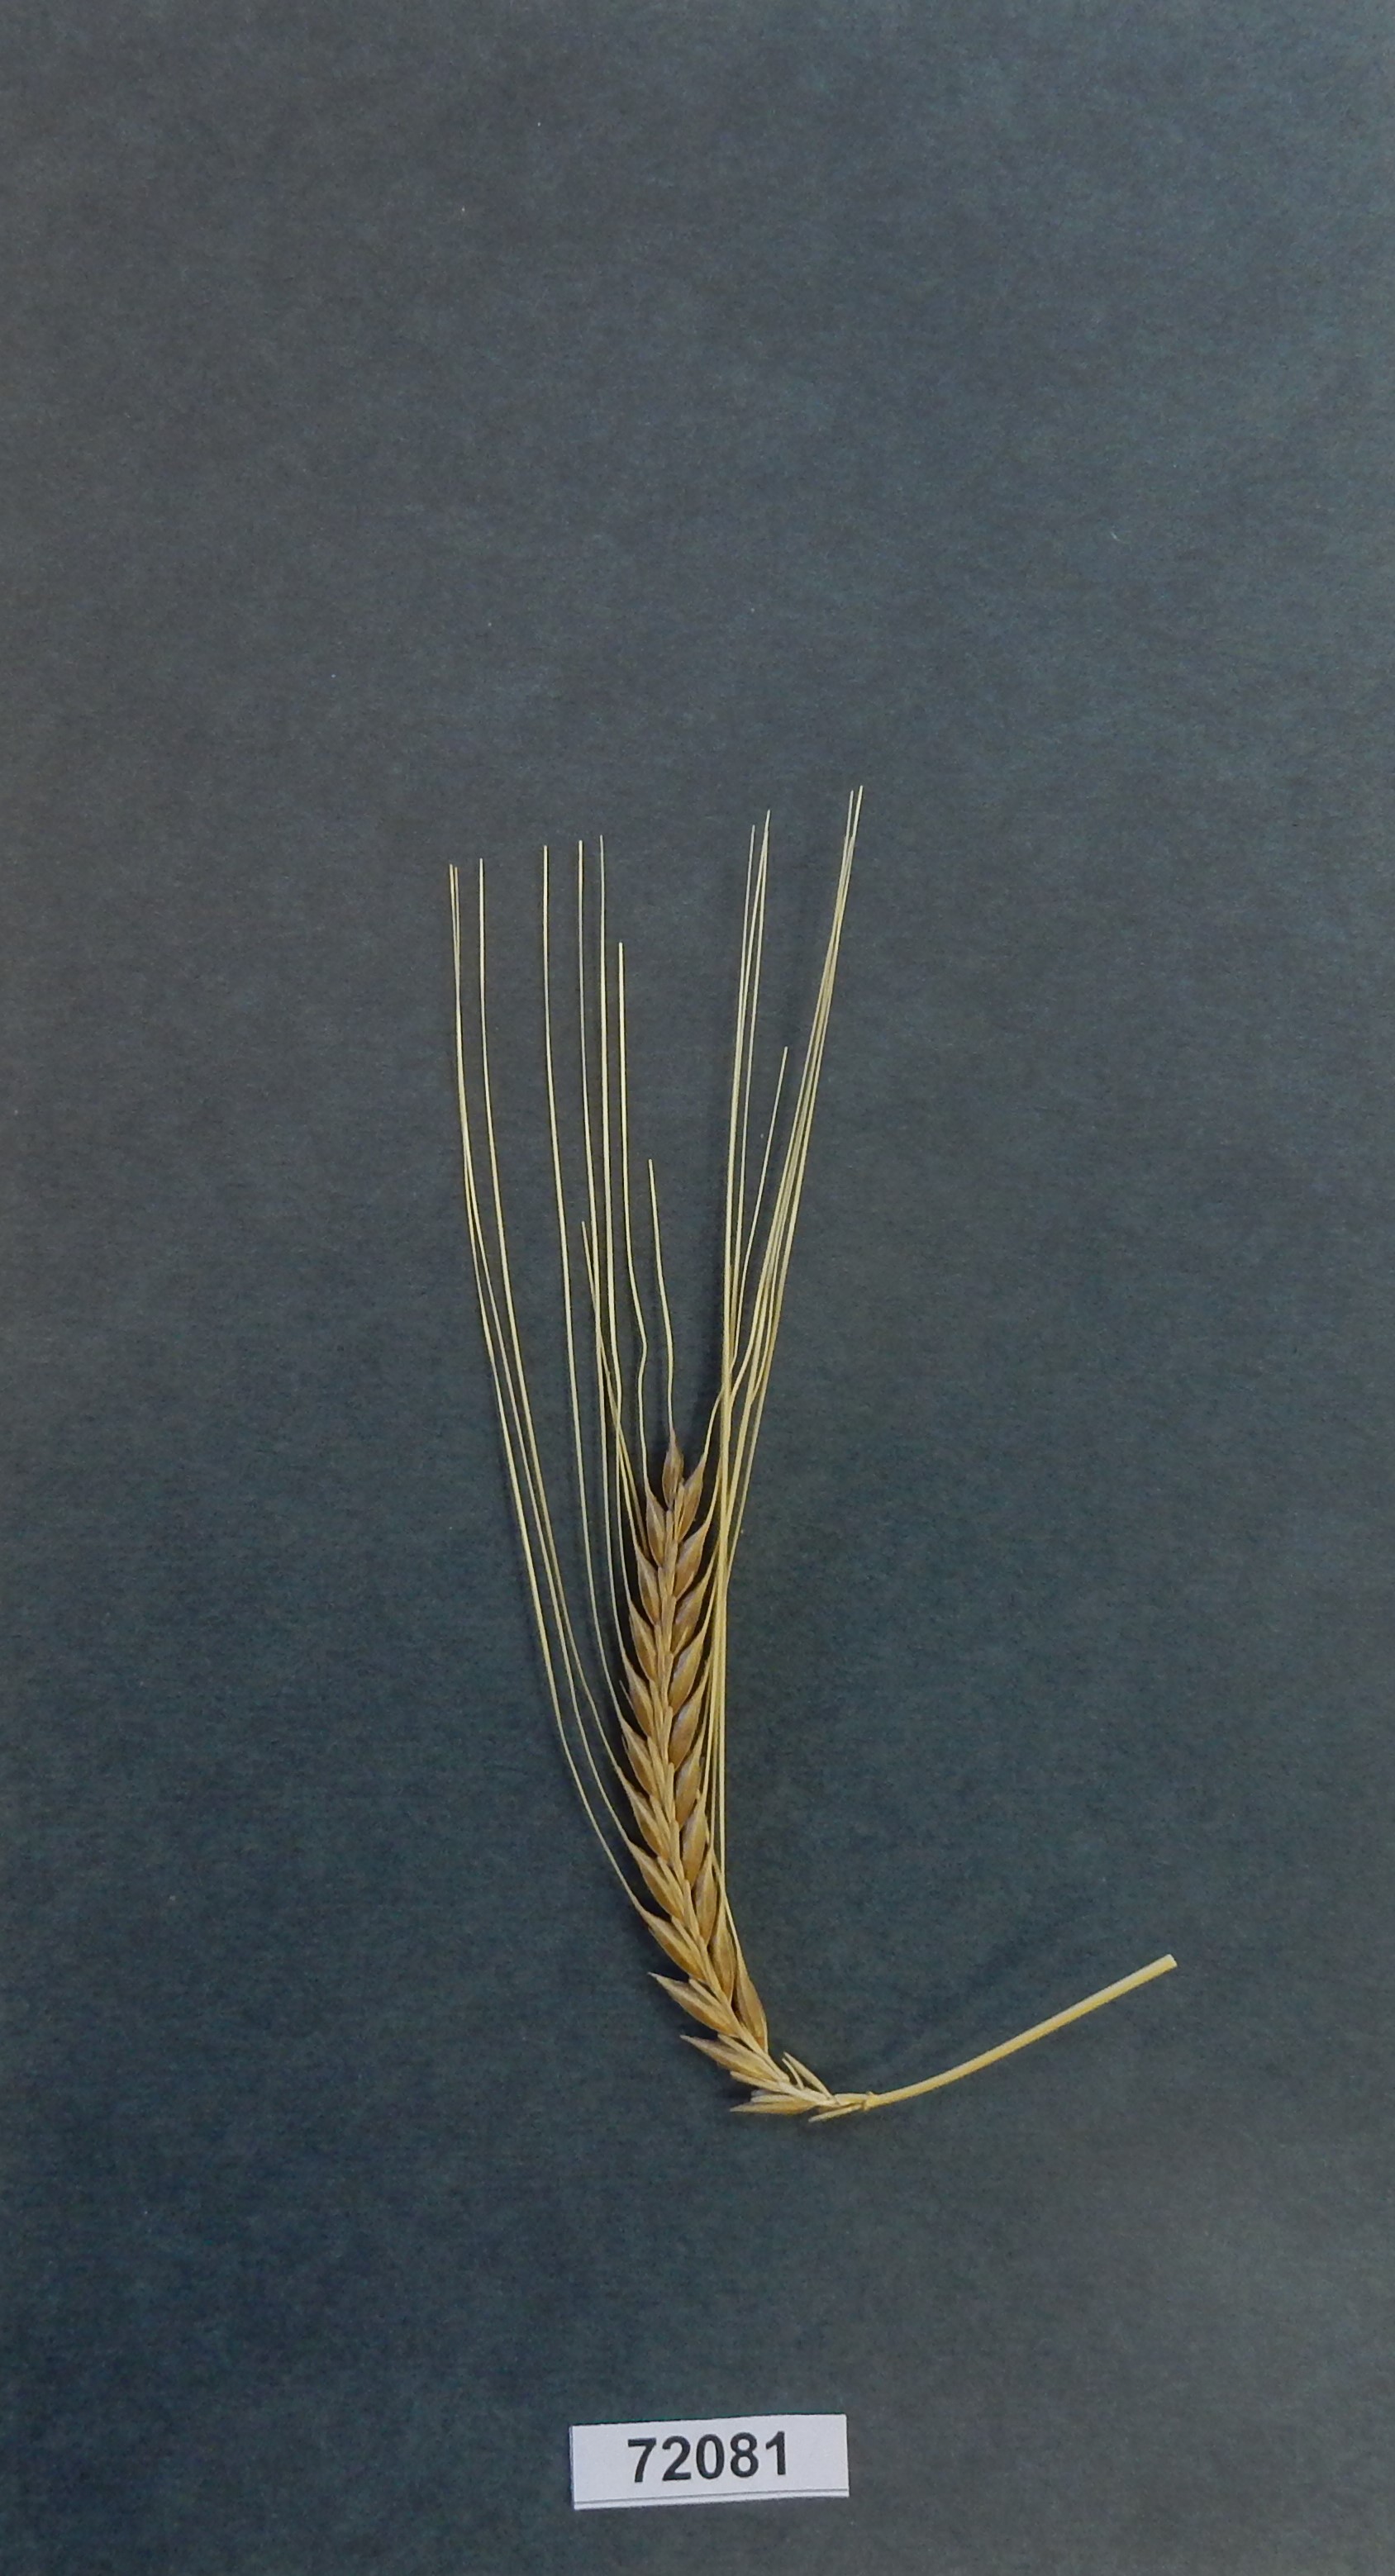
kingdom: Plantae
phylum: Tracheophyta
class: Liliopsida
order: Poales
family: Poaceae
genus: Hordeum
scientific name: Hordeum vulgare
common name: Barley
